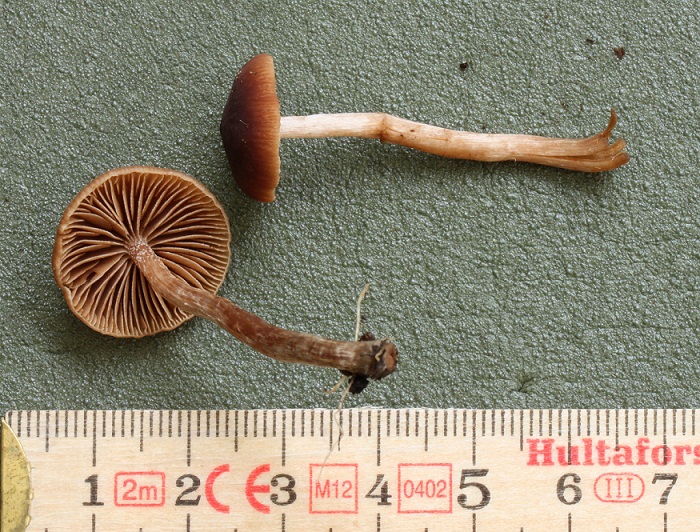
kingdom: Fungi
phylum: Basidiomycota
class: Agaricomycetes
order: Agaricales
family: Hymenogastraceae
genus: Naucoria
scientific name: Naucoria salicis
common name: pile-knaphat
